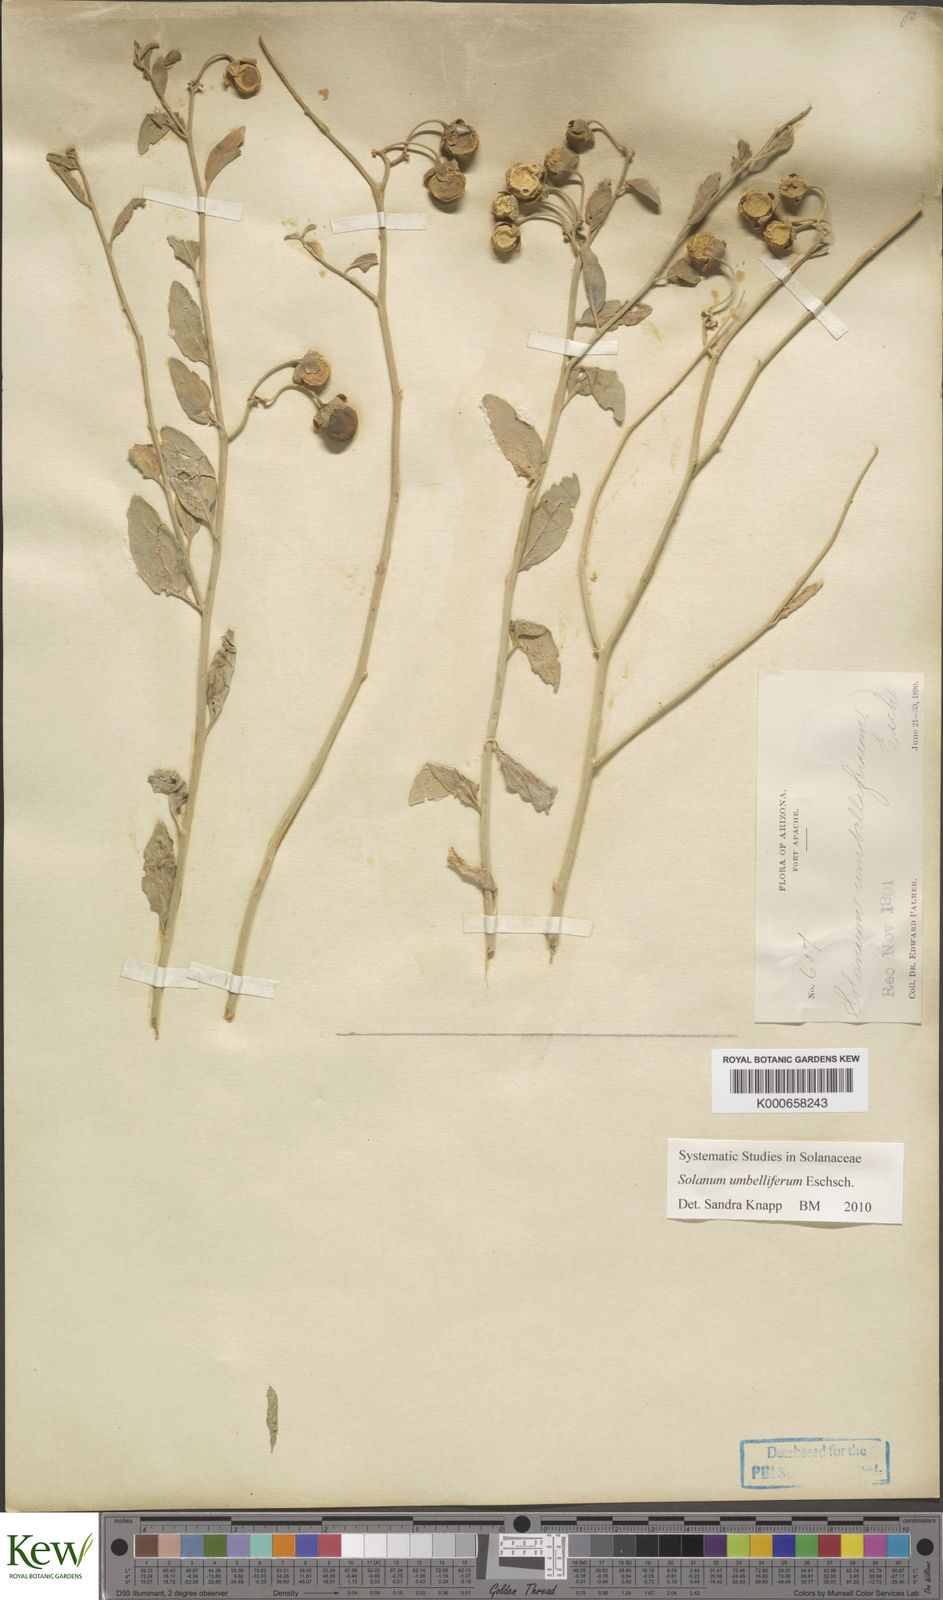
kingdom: Plantae
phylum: Tracheophyta
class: Magnoliopsida
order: Solanales
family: Solanaceae
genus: Solanum
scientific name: Solanum umbelliferum
